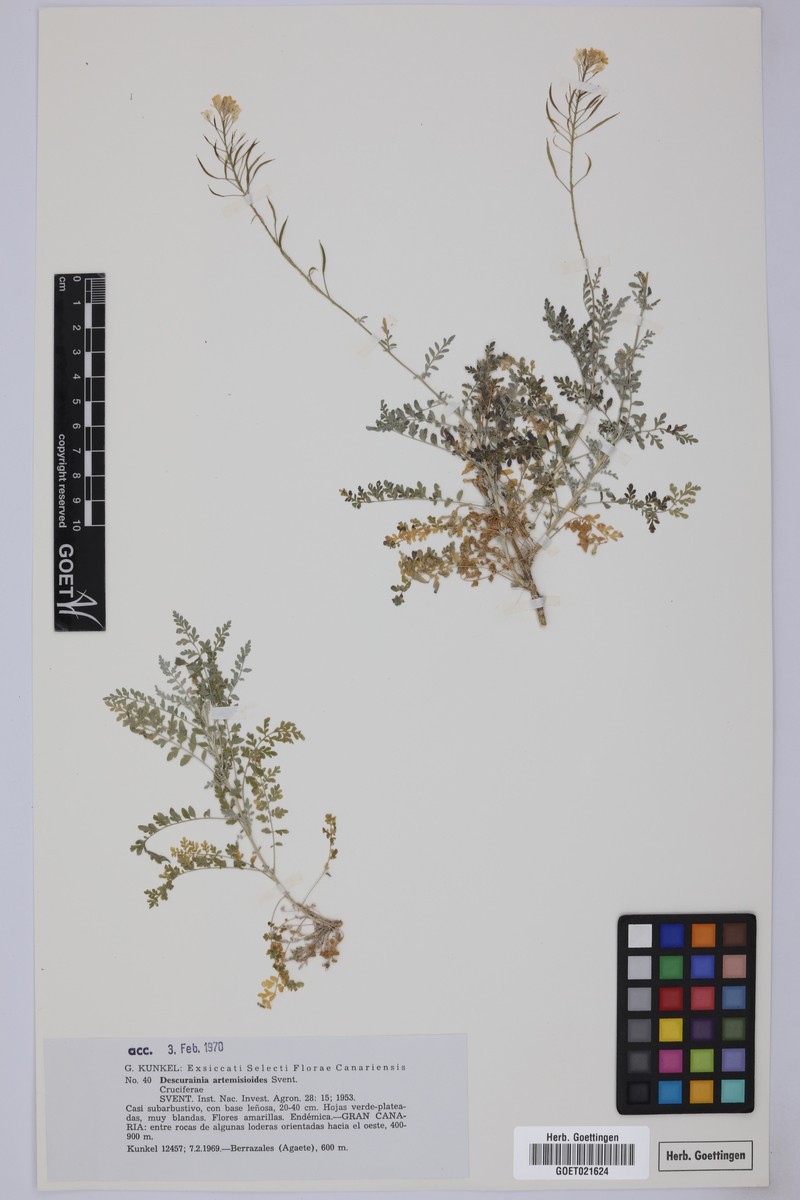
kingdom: Plantae
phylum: Tracheophyta
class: Magnoliopsida
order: Brassicales
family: Brassicaceae
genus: Descurainia
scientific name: Descurainia artemisioides
